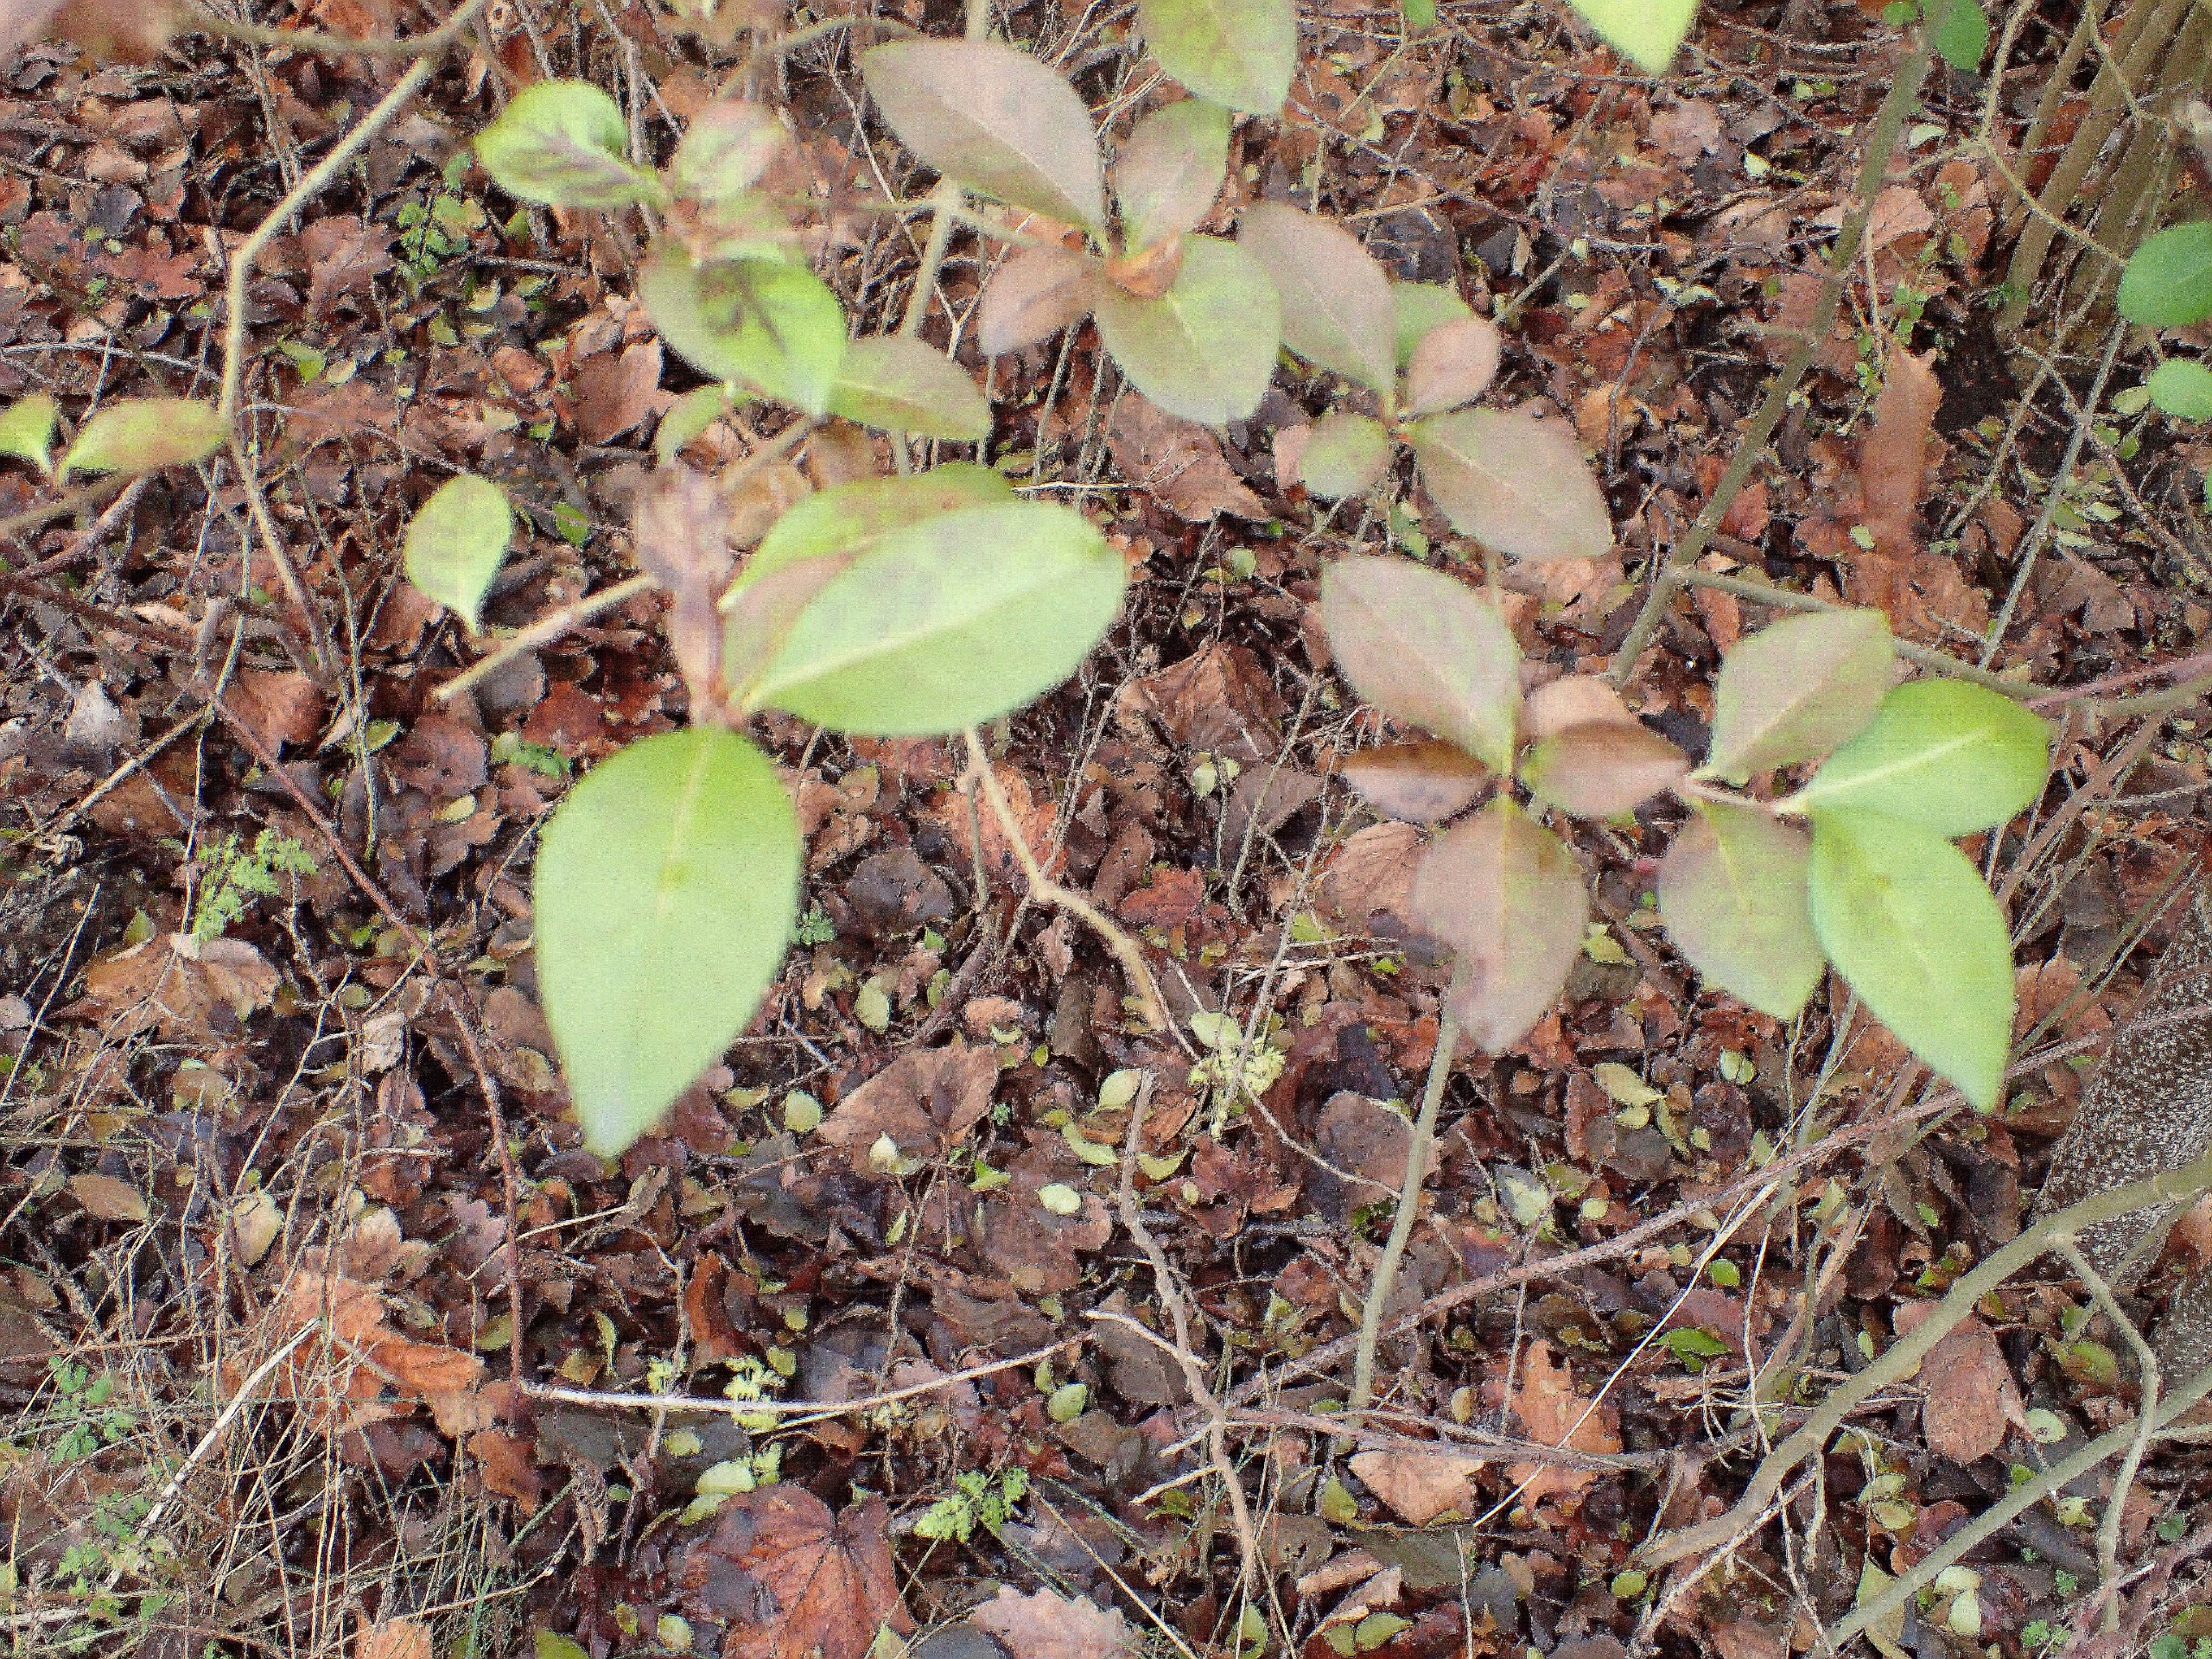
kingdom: Plantae
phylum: Tracheophyta
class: Magnoliopsida
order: Lamiales
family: Oleaceae
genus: Ligustrum
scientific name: Ligustrum ovalifolium
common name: Storbladet liguster
